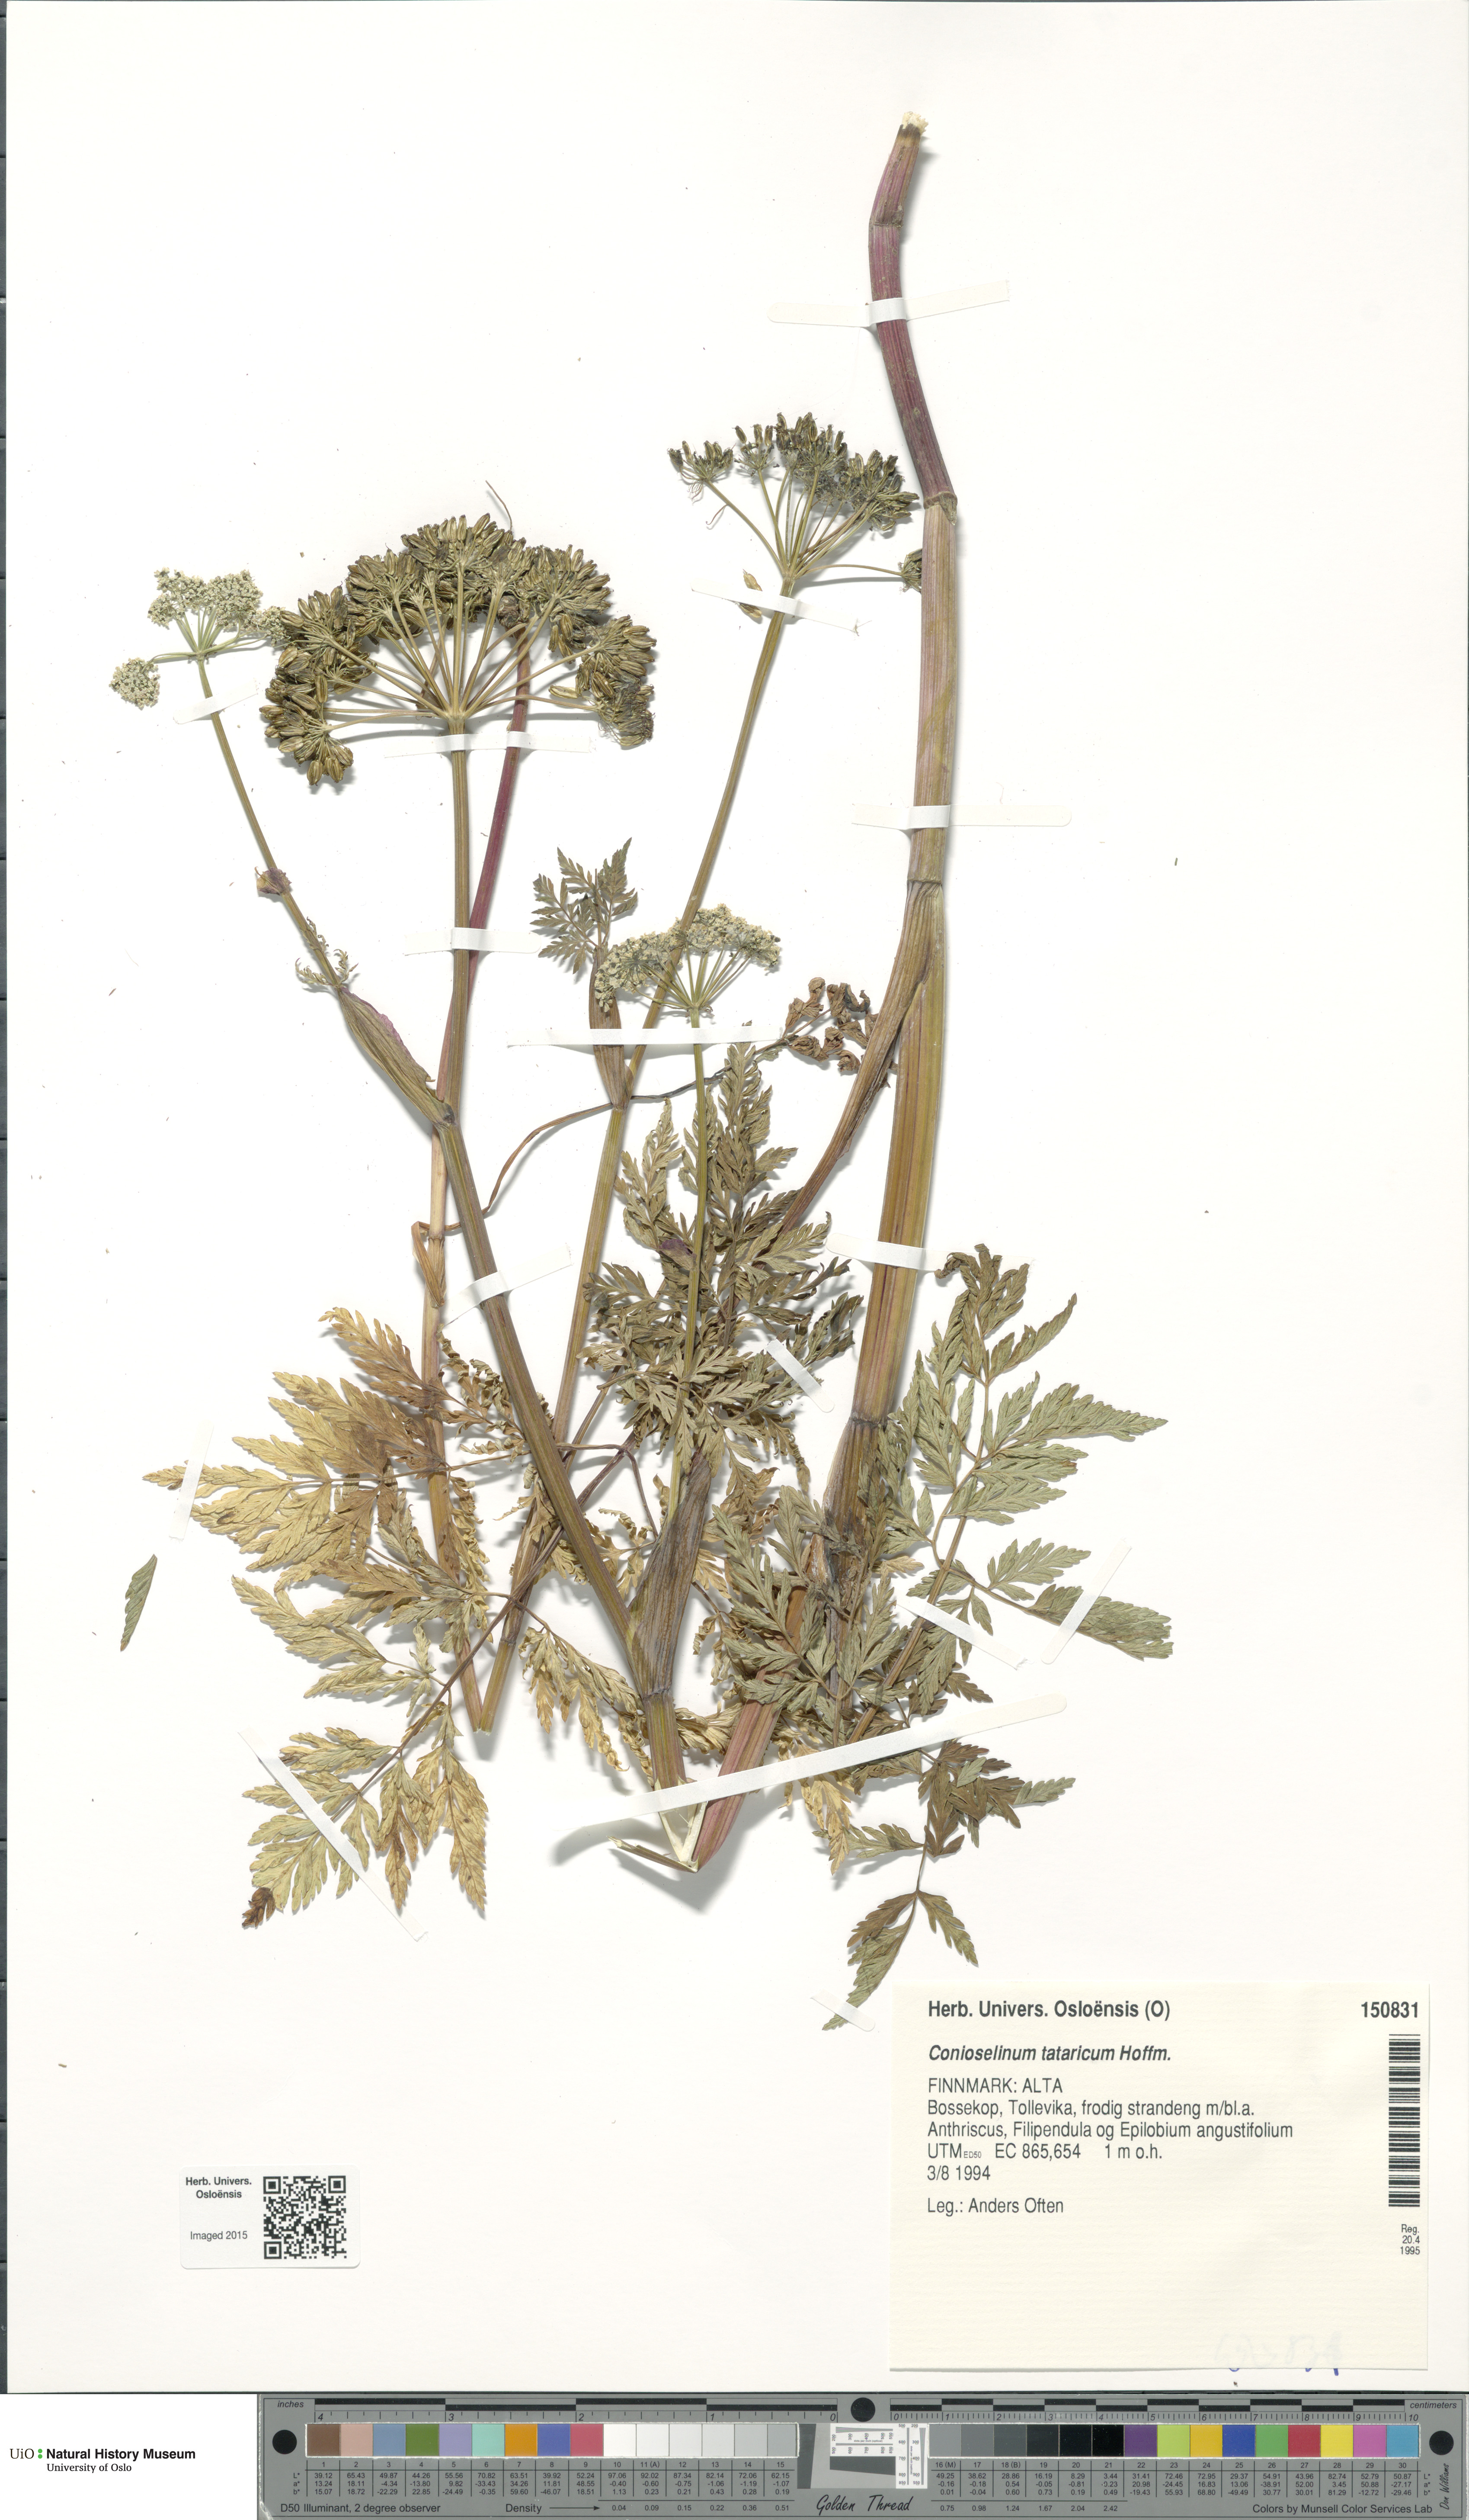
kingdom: Plantae
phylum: Tracheophyta
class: Magnoliopsida
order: Apiales
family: Apiaceae
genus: Seseli
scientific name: Seseli condensatum
